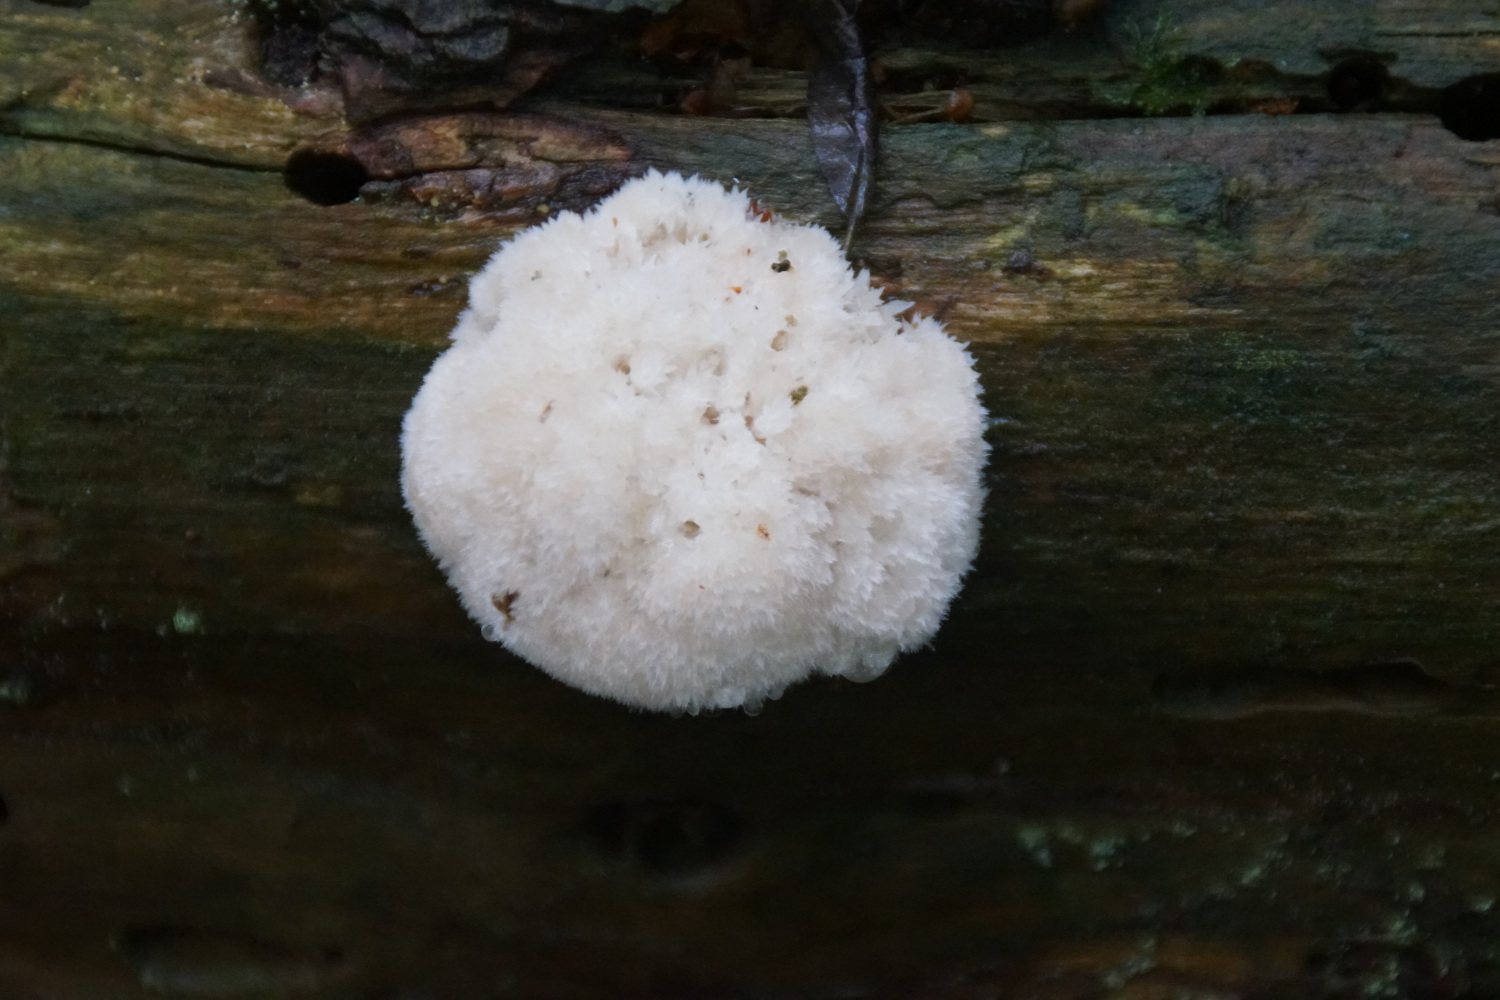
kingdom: Fungi
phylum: Basidiomycota
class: Agaricomycetes
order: Polyporales
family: Dacryobolaceae
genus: Postia
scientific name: Postia ptychogaster
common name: støvende kødporesvamp
